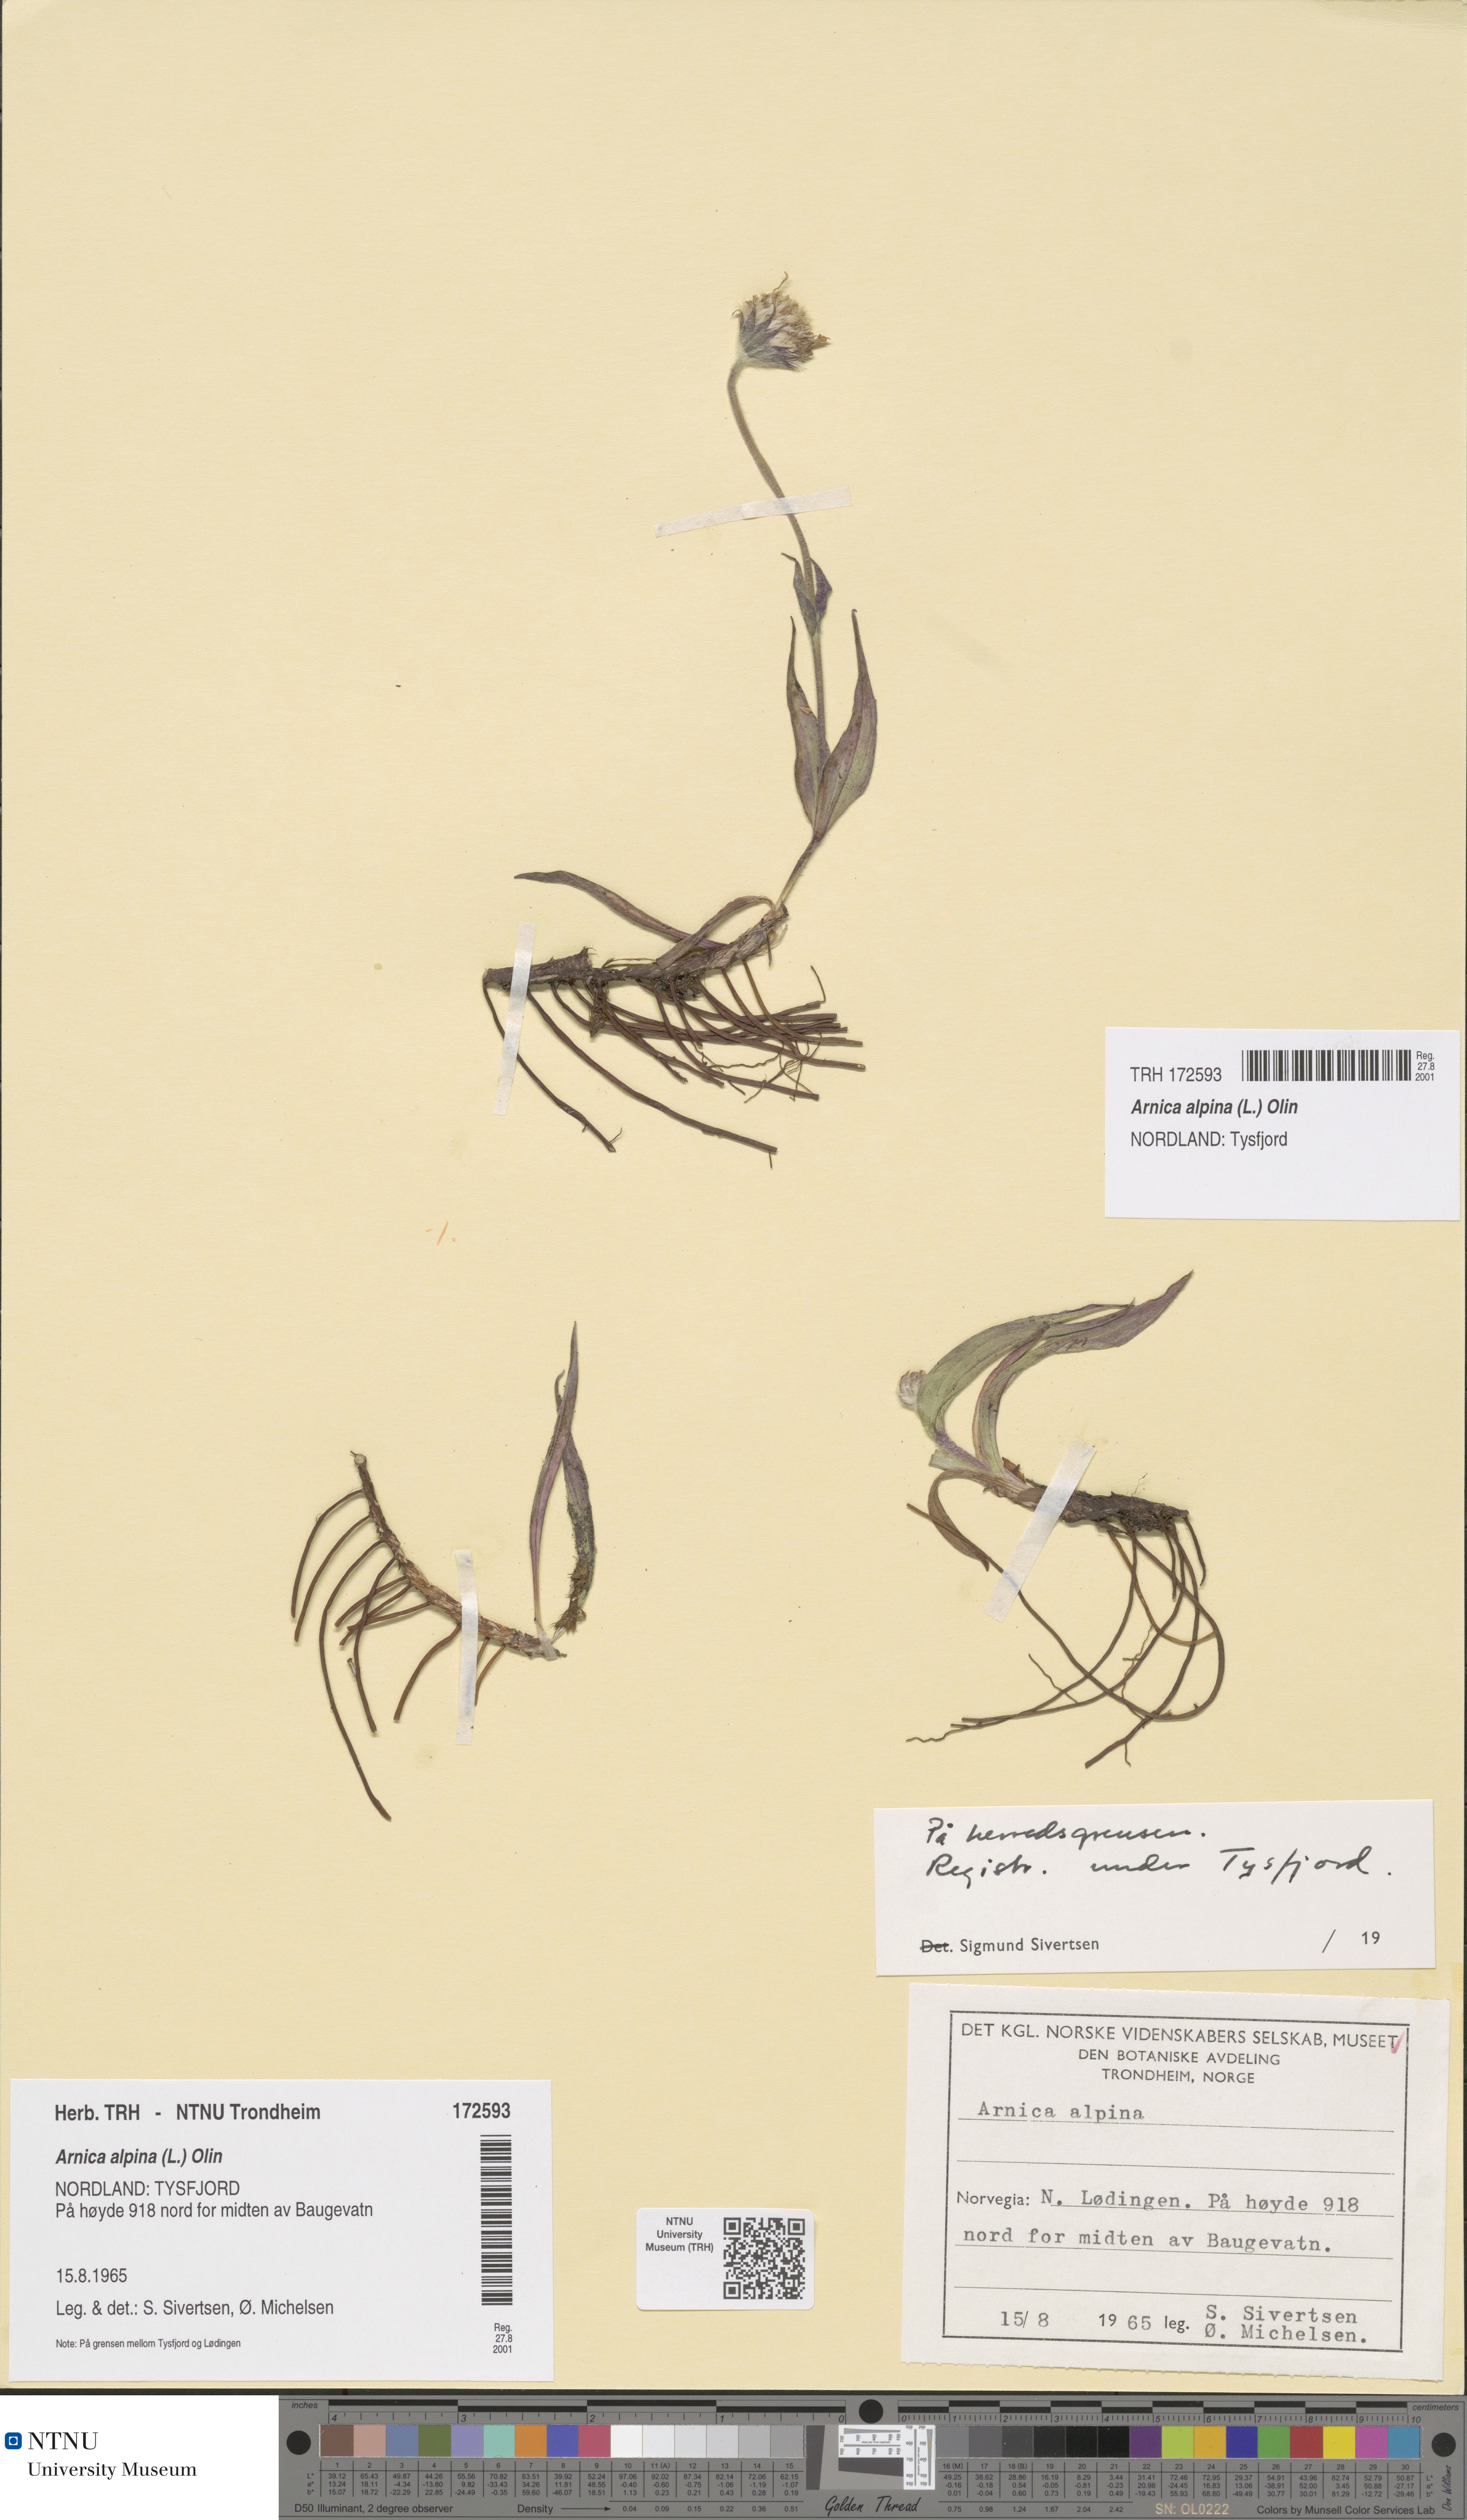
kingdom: Plantae
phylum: Tracheophyta
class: Magnoliopsida
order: Asterales
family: Asteraceae
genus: Arnica
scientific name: Arnica angustifolia
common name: Arctic arnica
